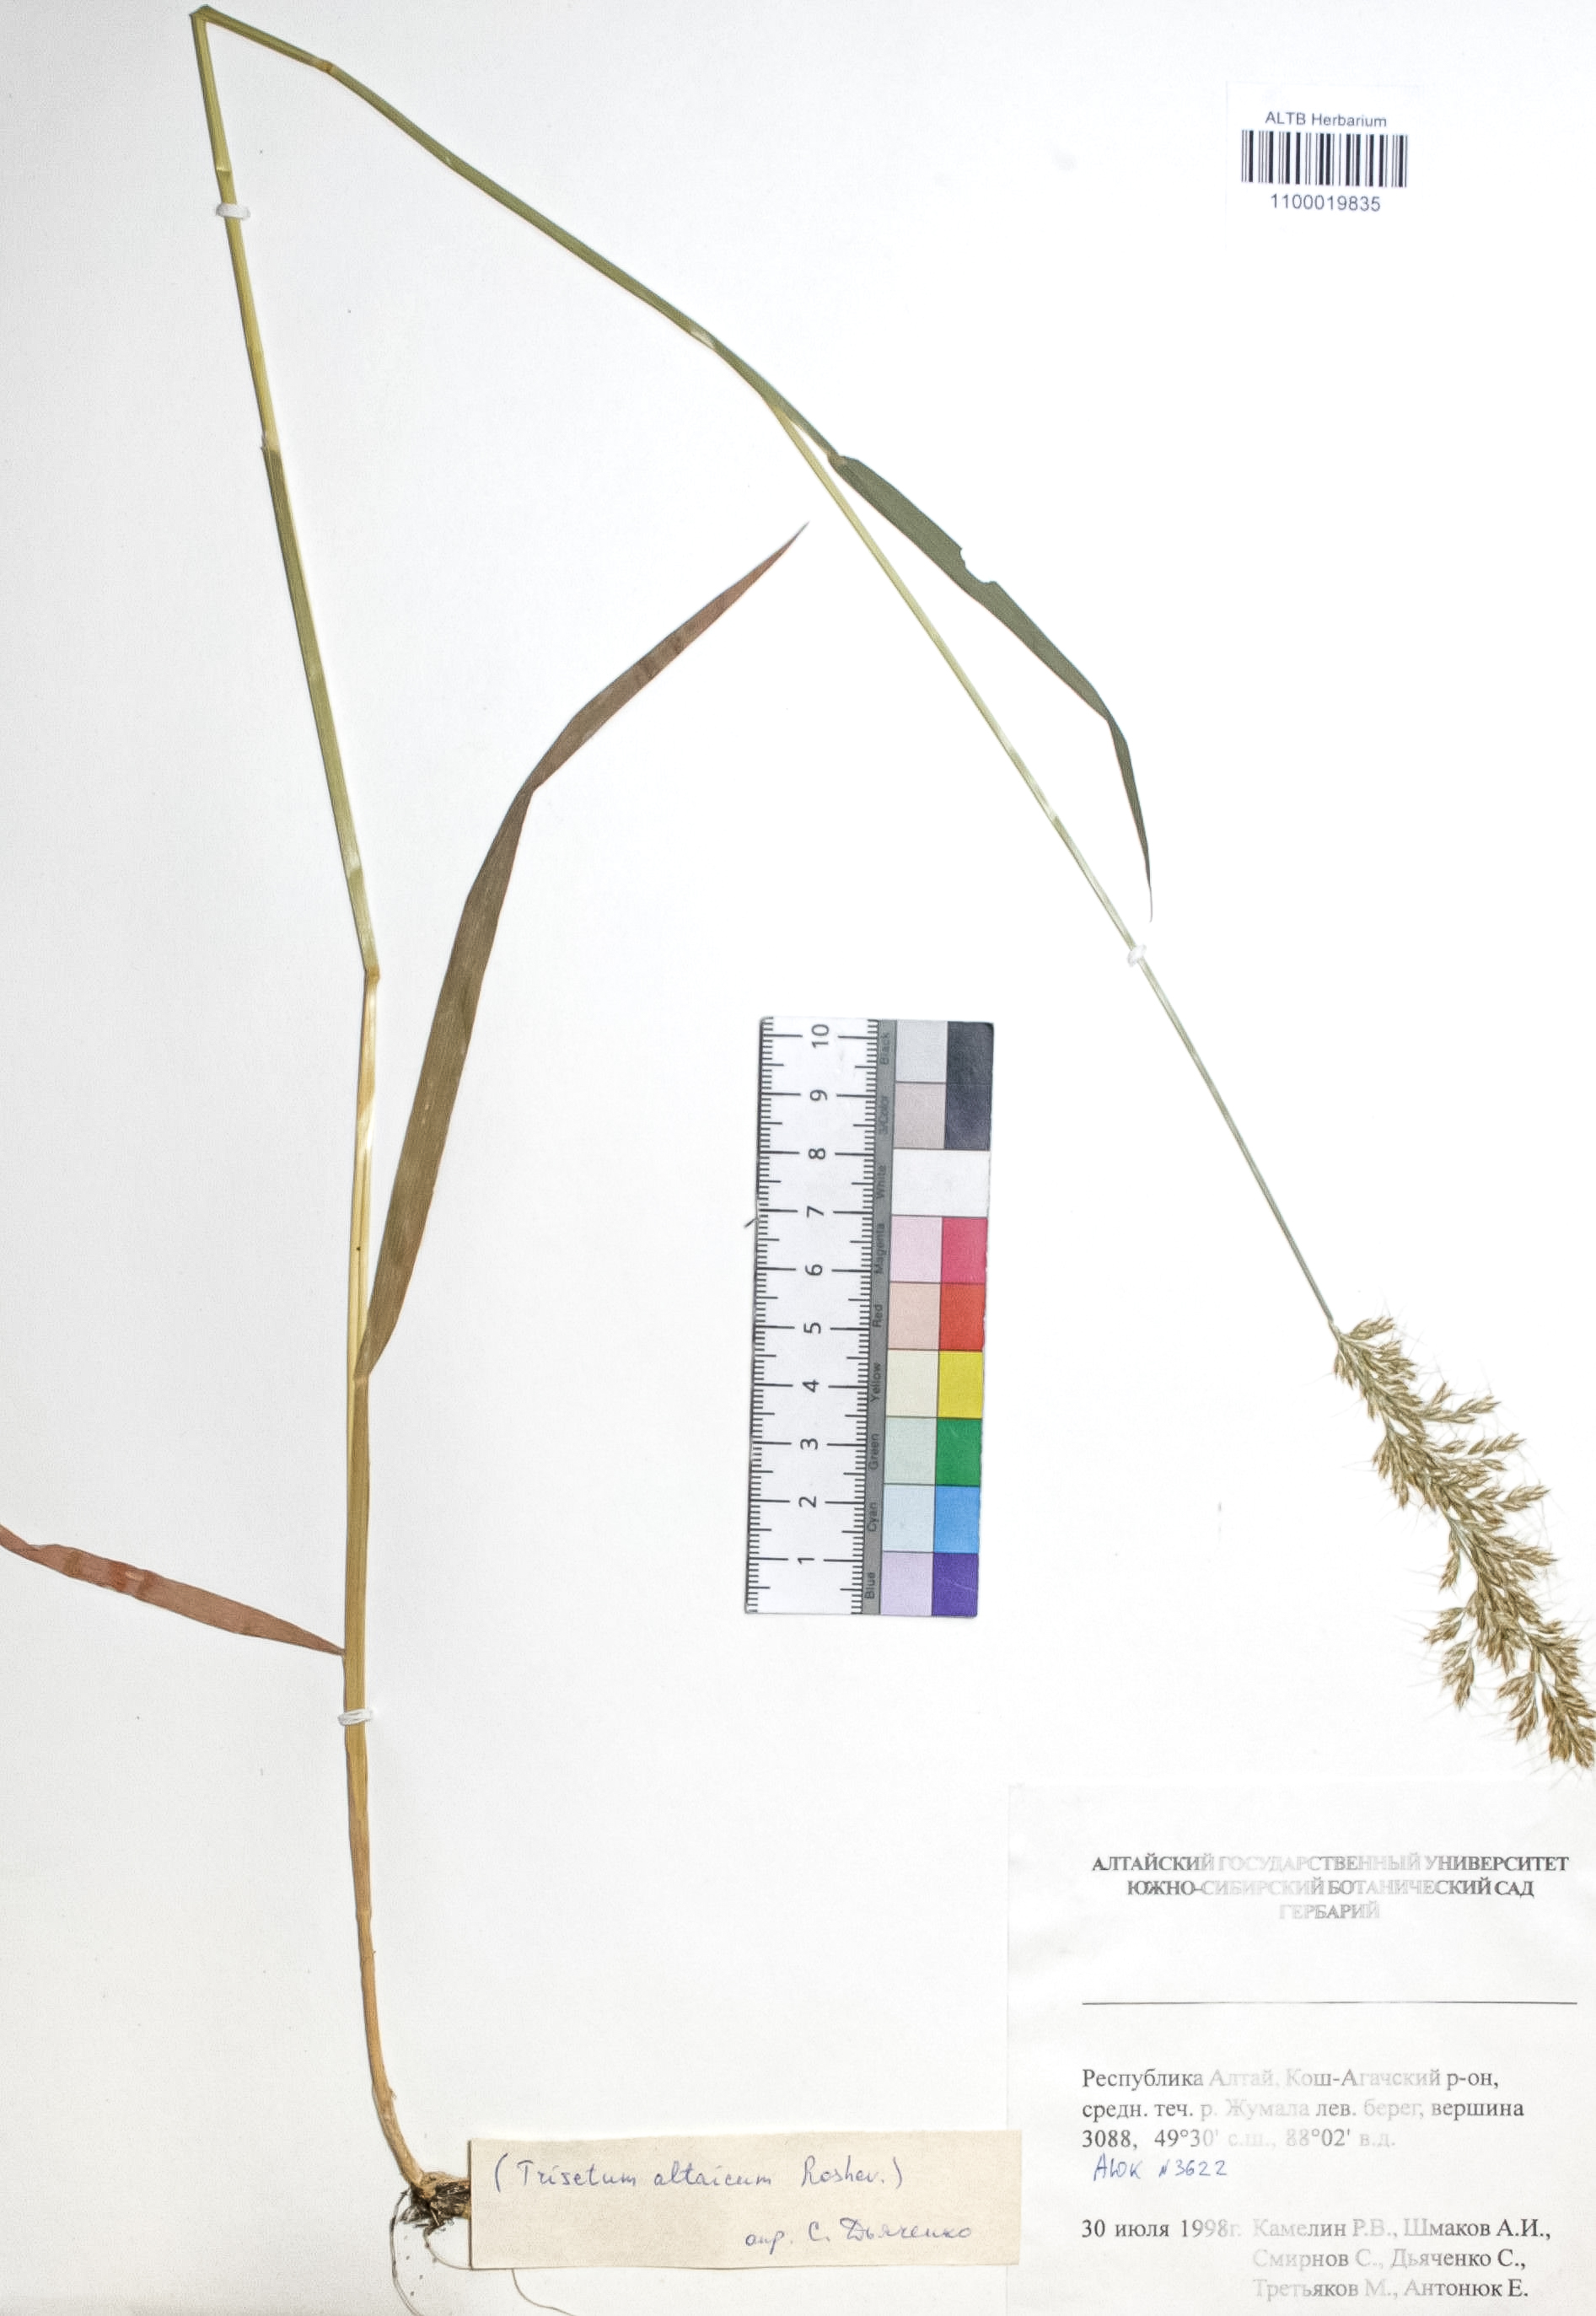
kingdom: Plantae
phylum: Tracheophyta
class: Liliopsida
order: Poales
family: Poaceae
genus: Trisetum
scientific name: Trisetum altaicum
